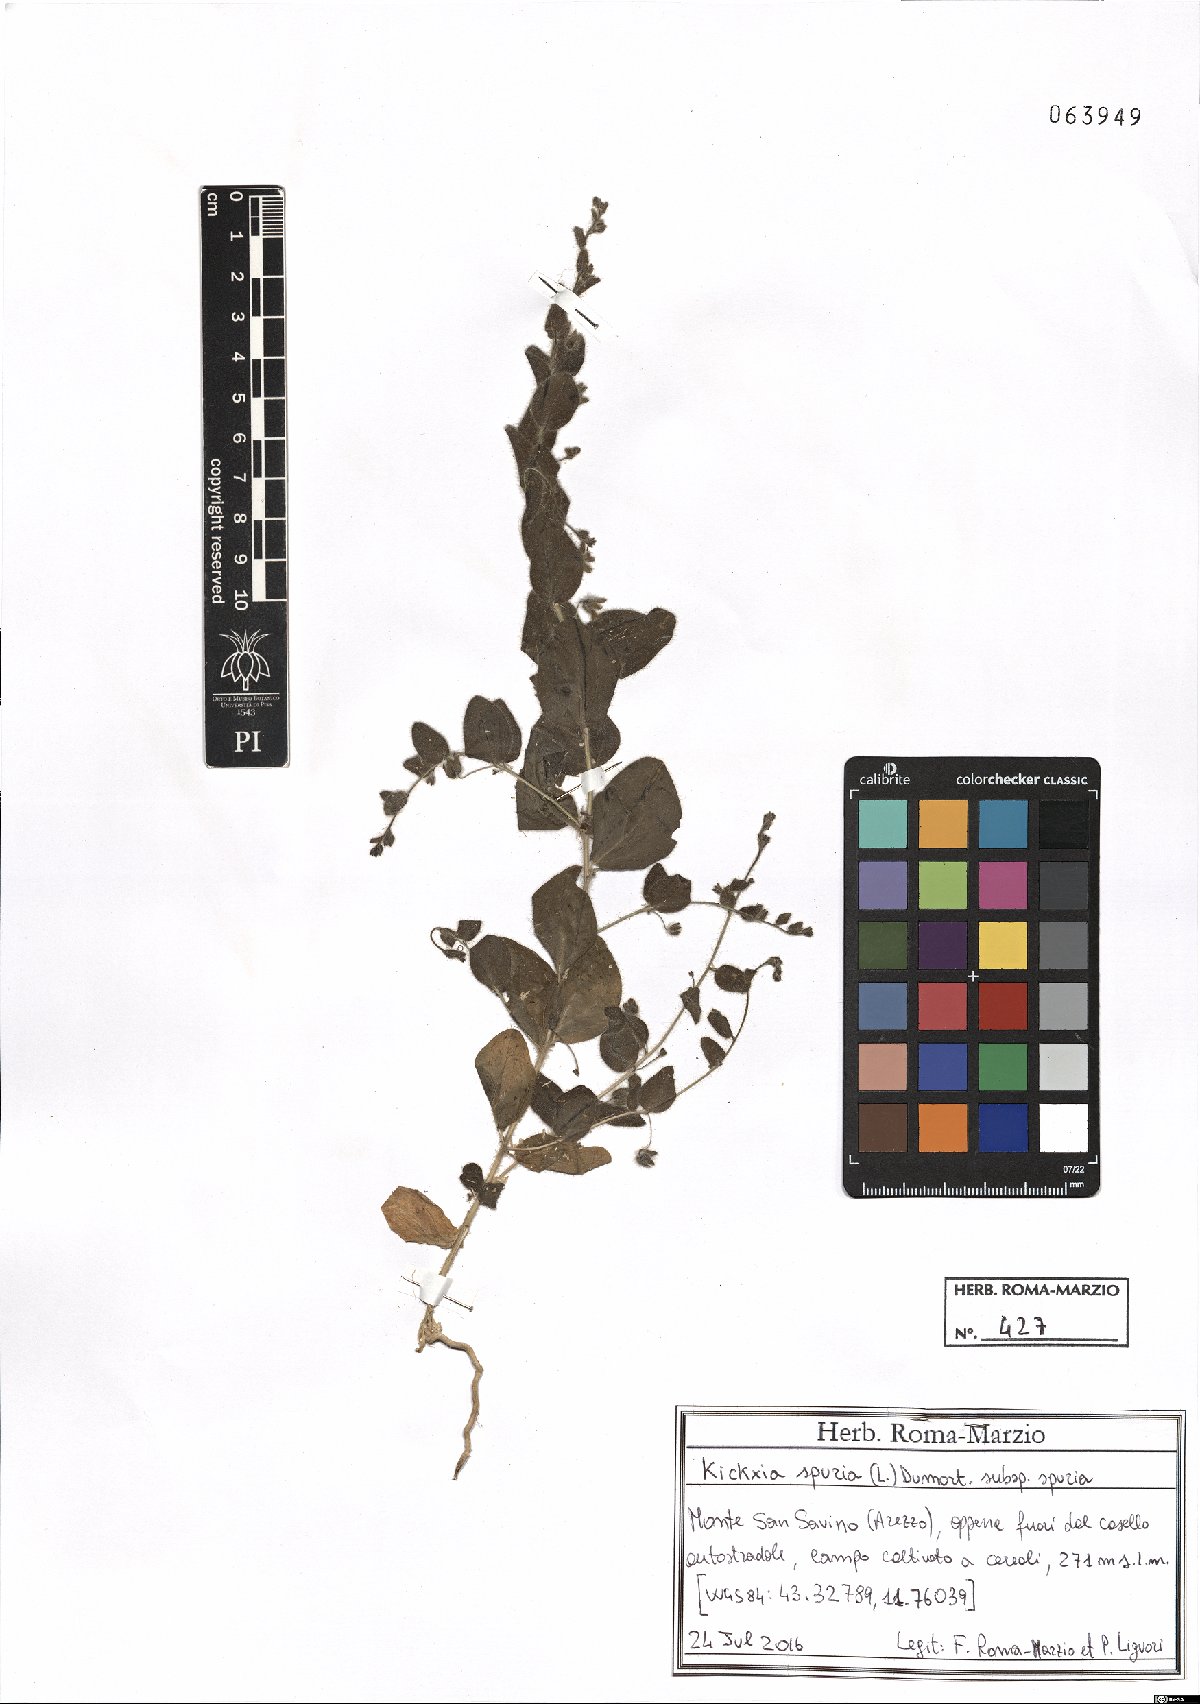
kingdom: Plantae
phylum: Tracheophyta
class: Magnoliopsida
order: Lamiales
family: Plantaginaceae
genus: Kickxia
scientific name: Kickxia spuria
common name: Round-leaved fluellen
